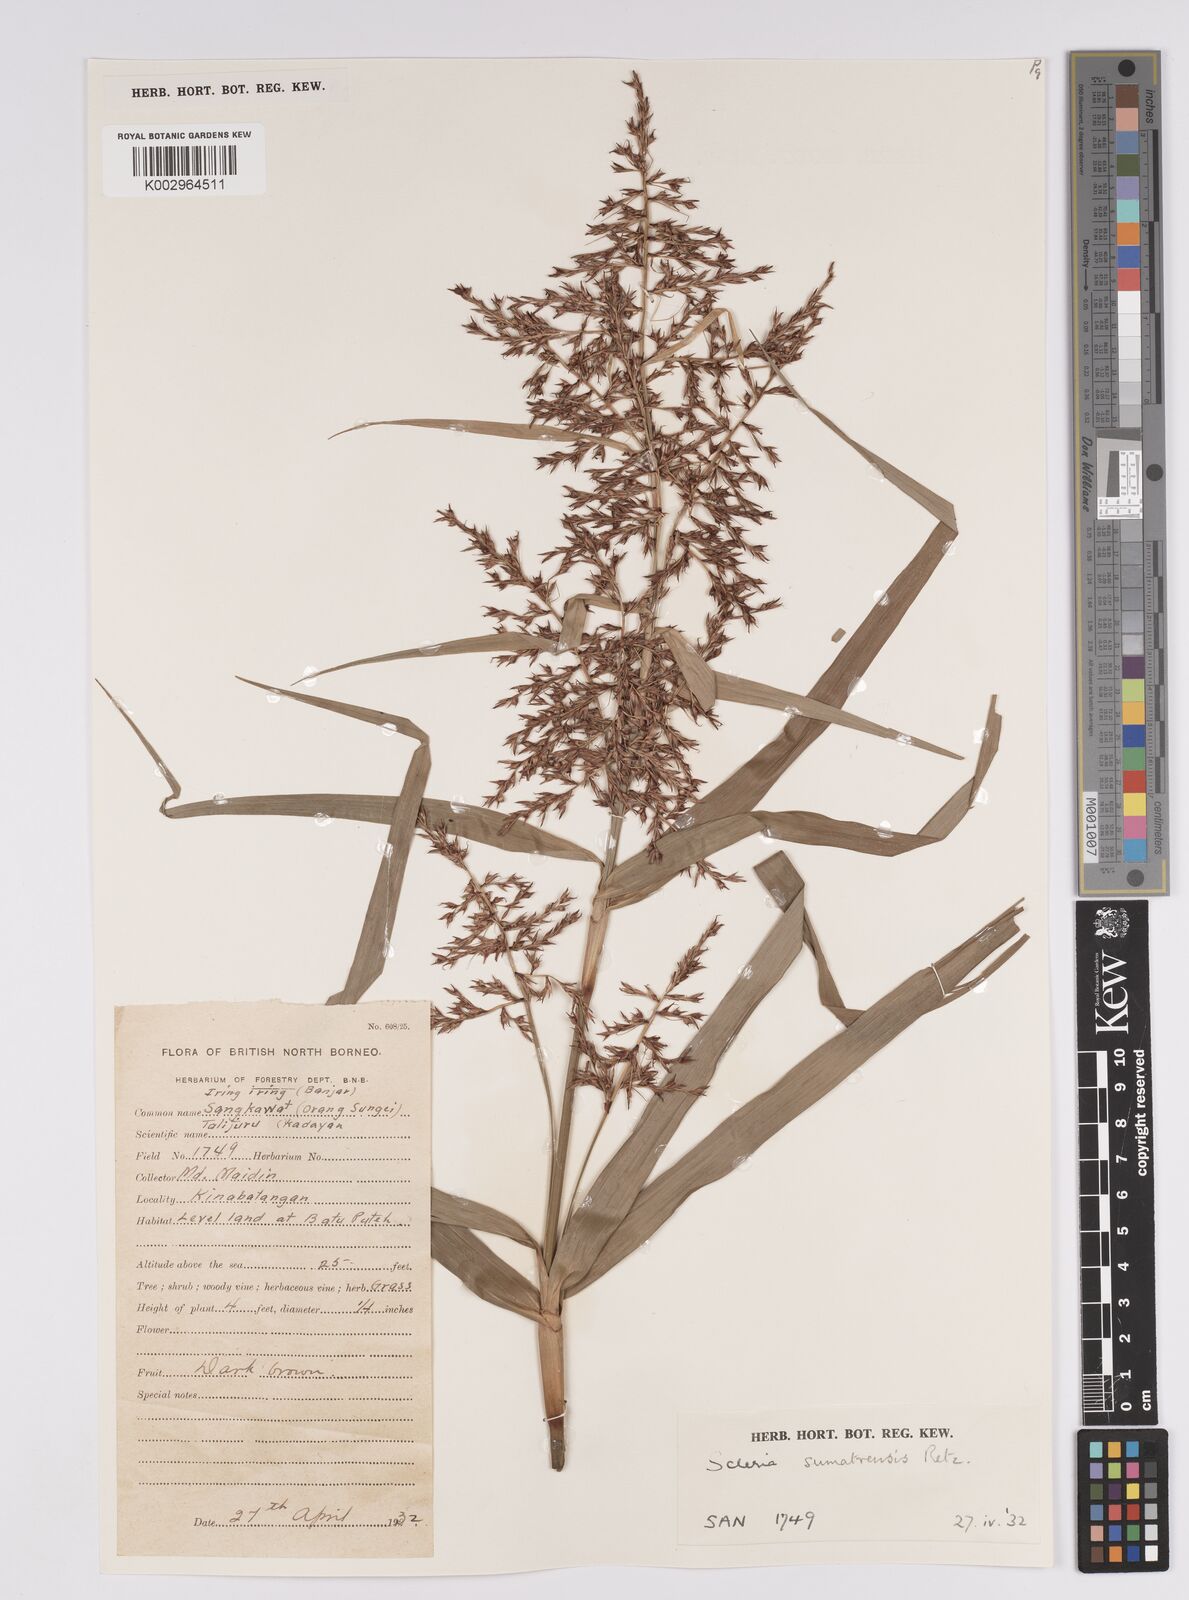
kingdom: Plantae
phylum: Tracheophyta
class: Liliopsida
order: Poales
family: Cyperaceae
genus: Scleria
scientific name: Scleria sumatrensis
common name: Sumatran scleria
